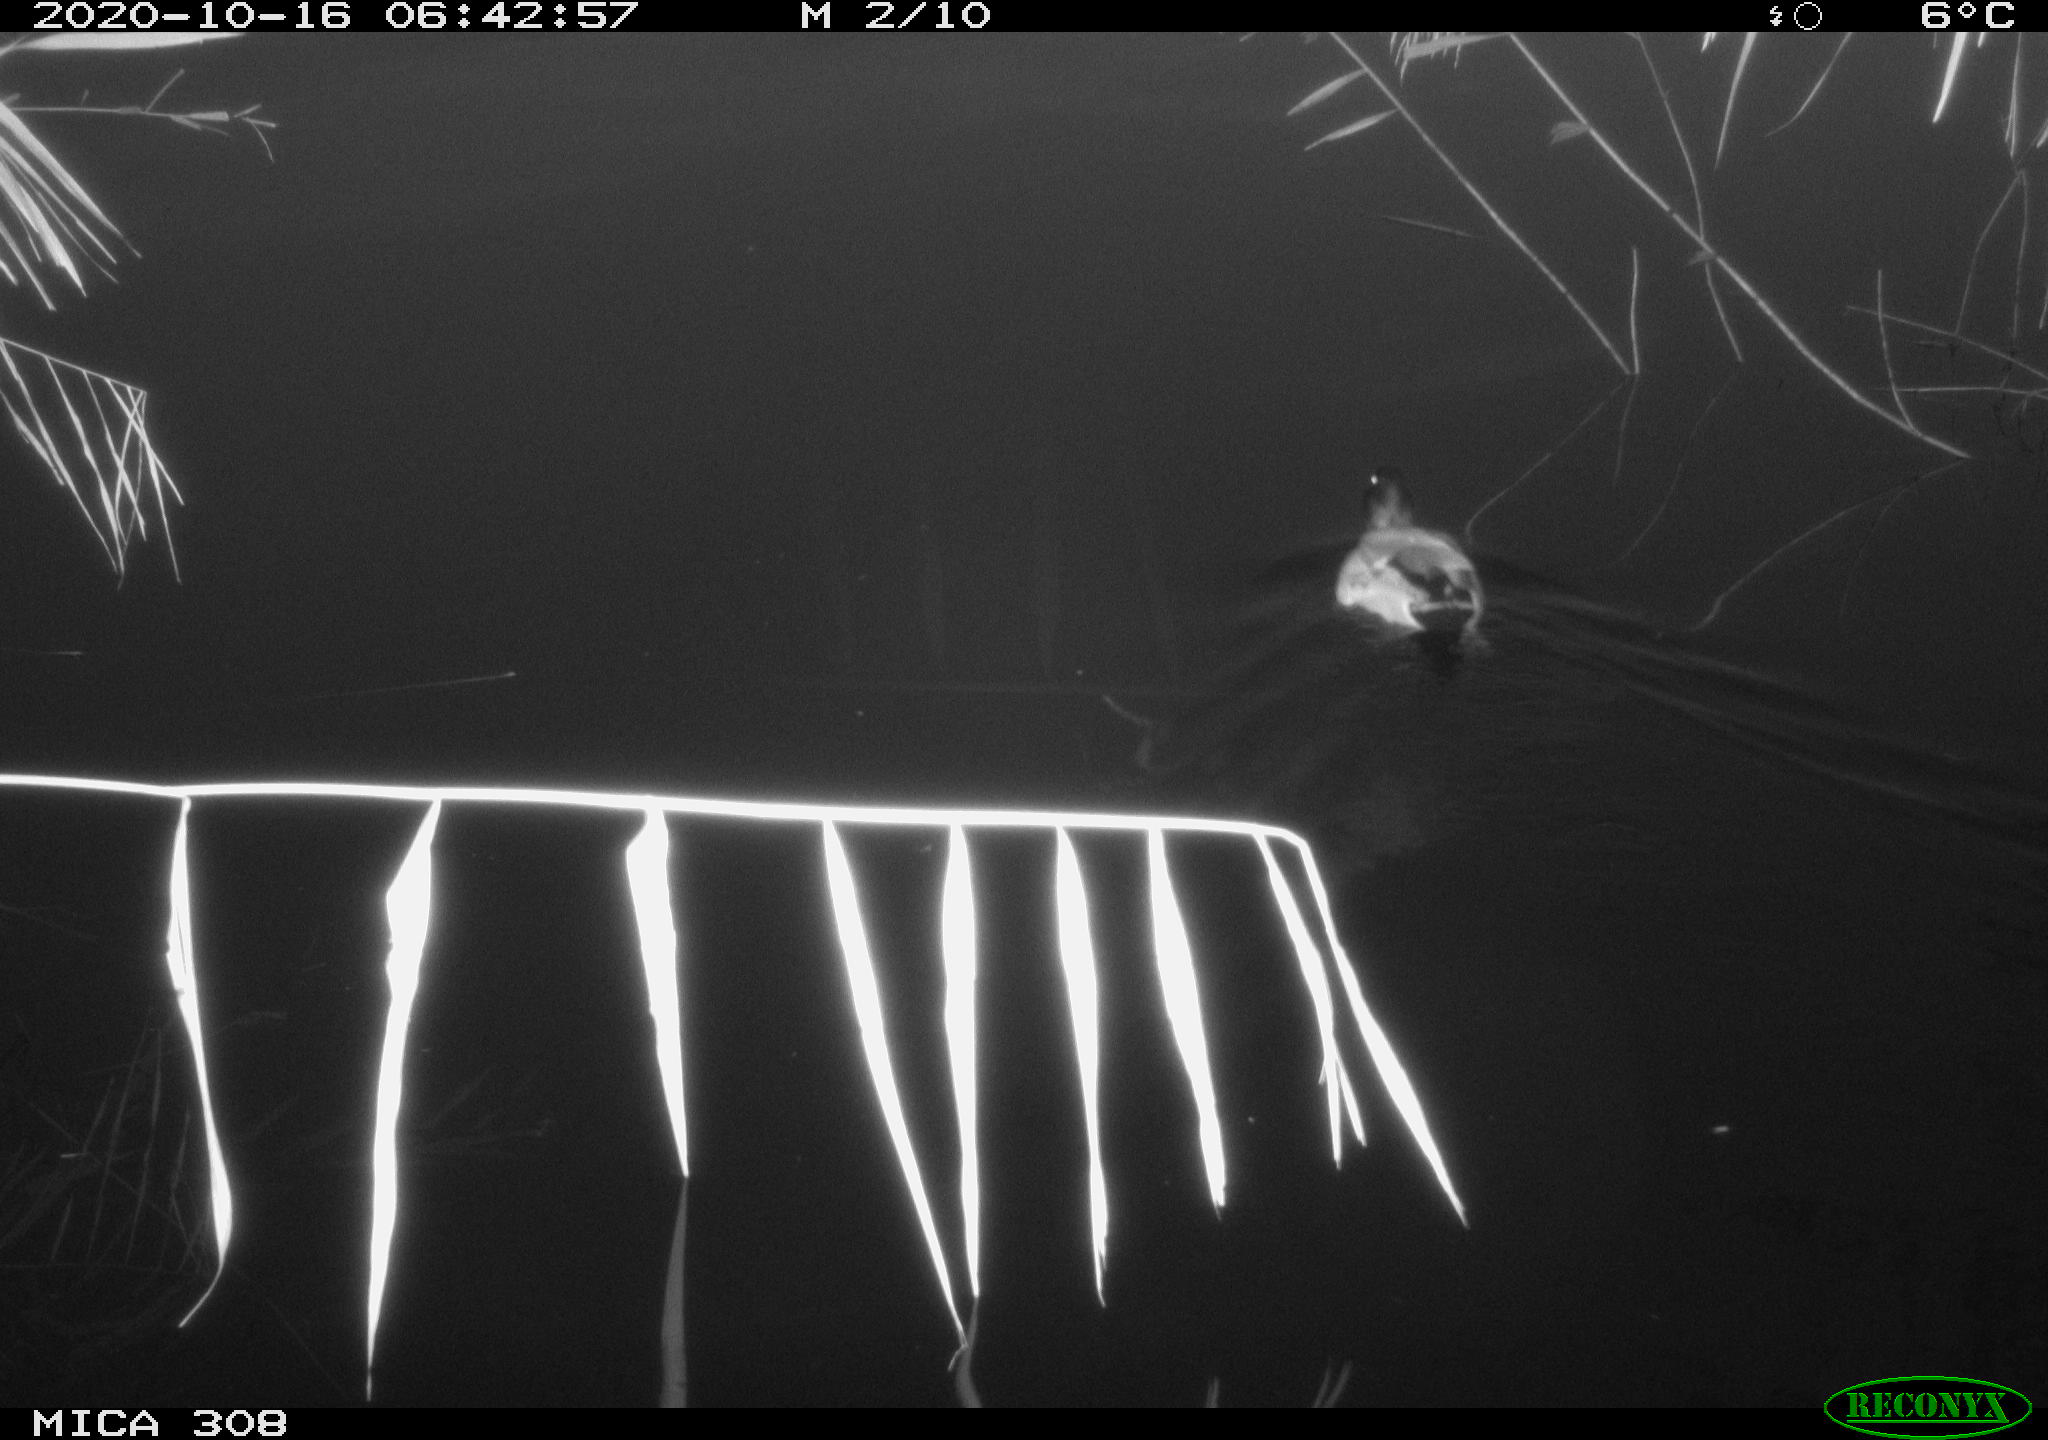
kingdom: Animalia
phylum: Chordata
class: Aves
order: Anseriformes
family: Anatidae
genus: Anas
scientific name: Anas platyrhynchos
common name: Mallard
